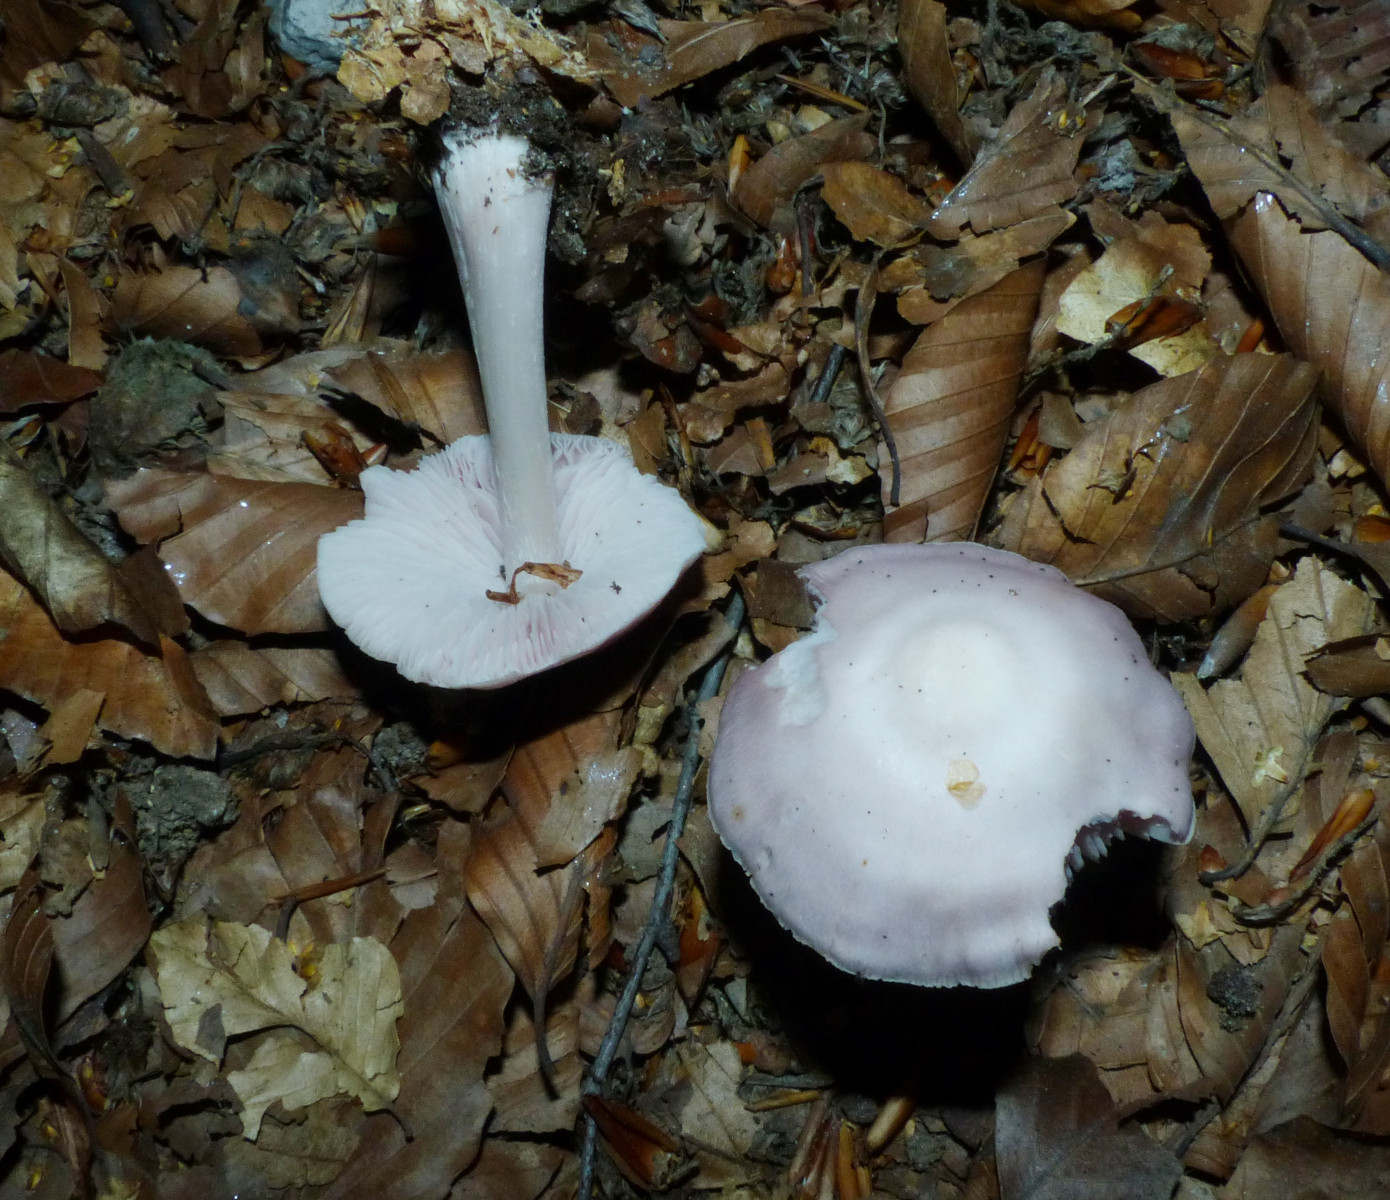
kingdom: Fungi
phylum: Basidiomycota
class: Agaricomycetes
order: Agaricales
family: Mycenaceae
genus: Mycena
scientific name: Mycena rosea
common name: rosa huesvamp
